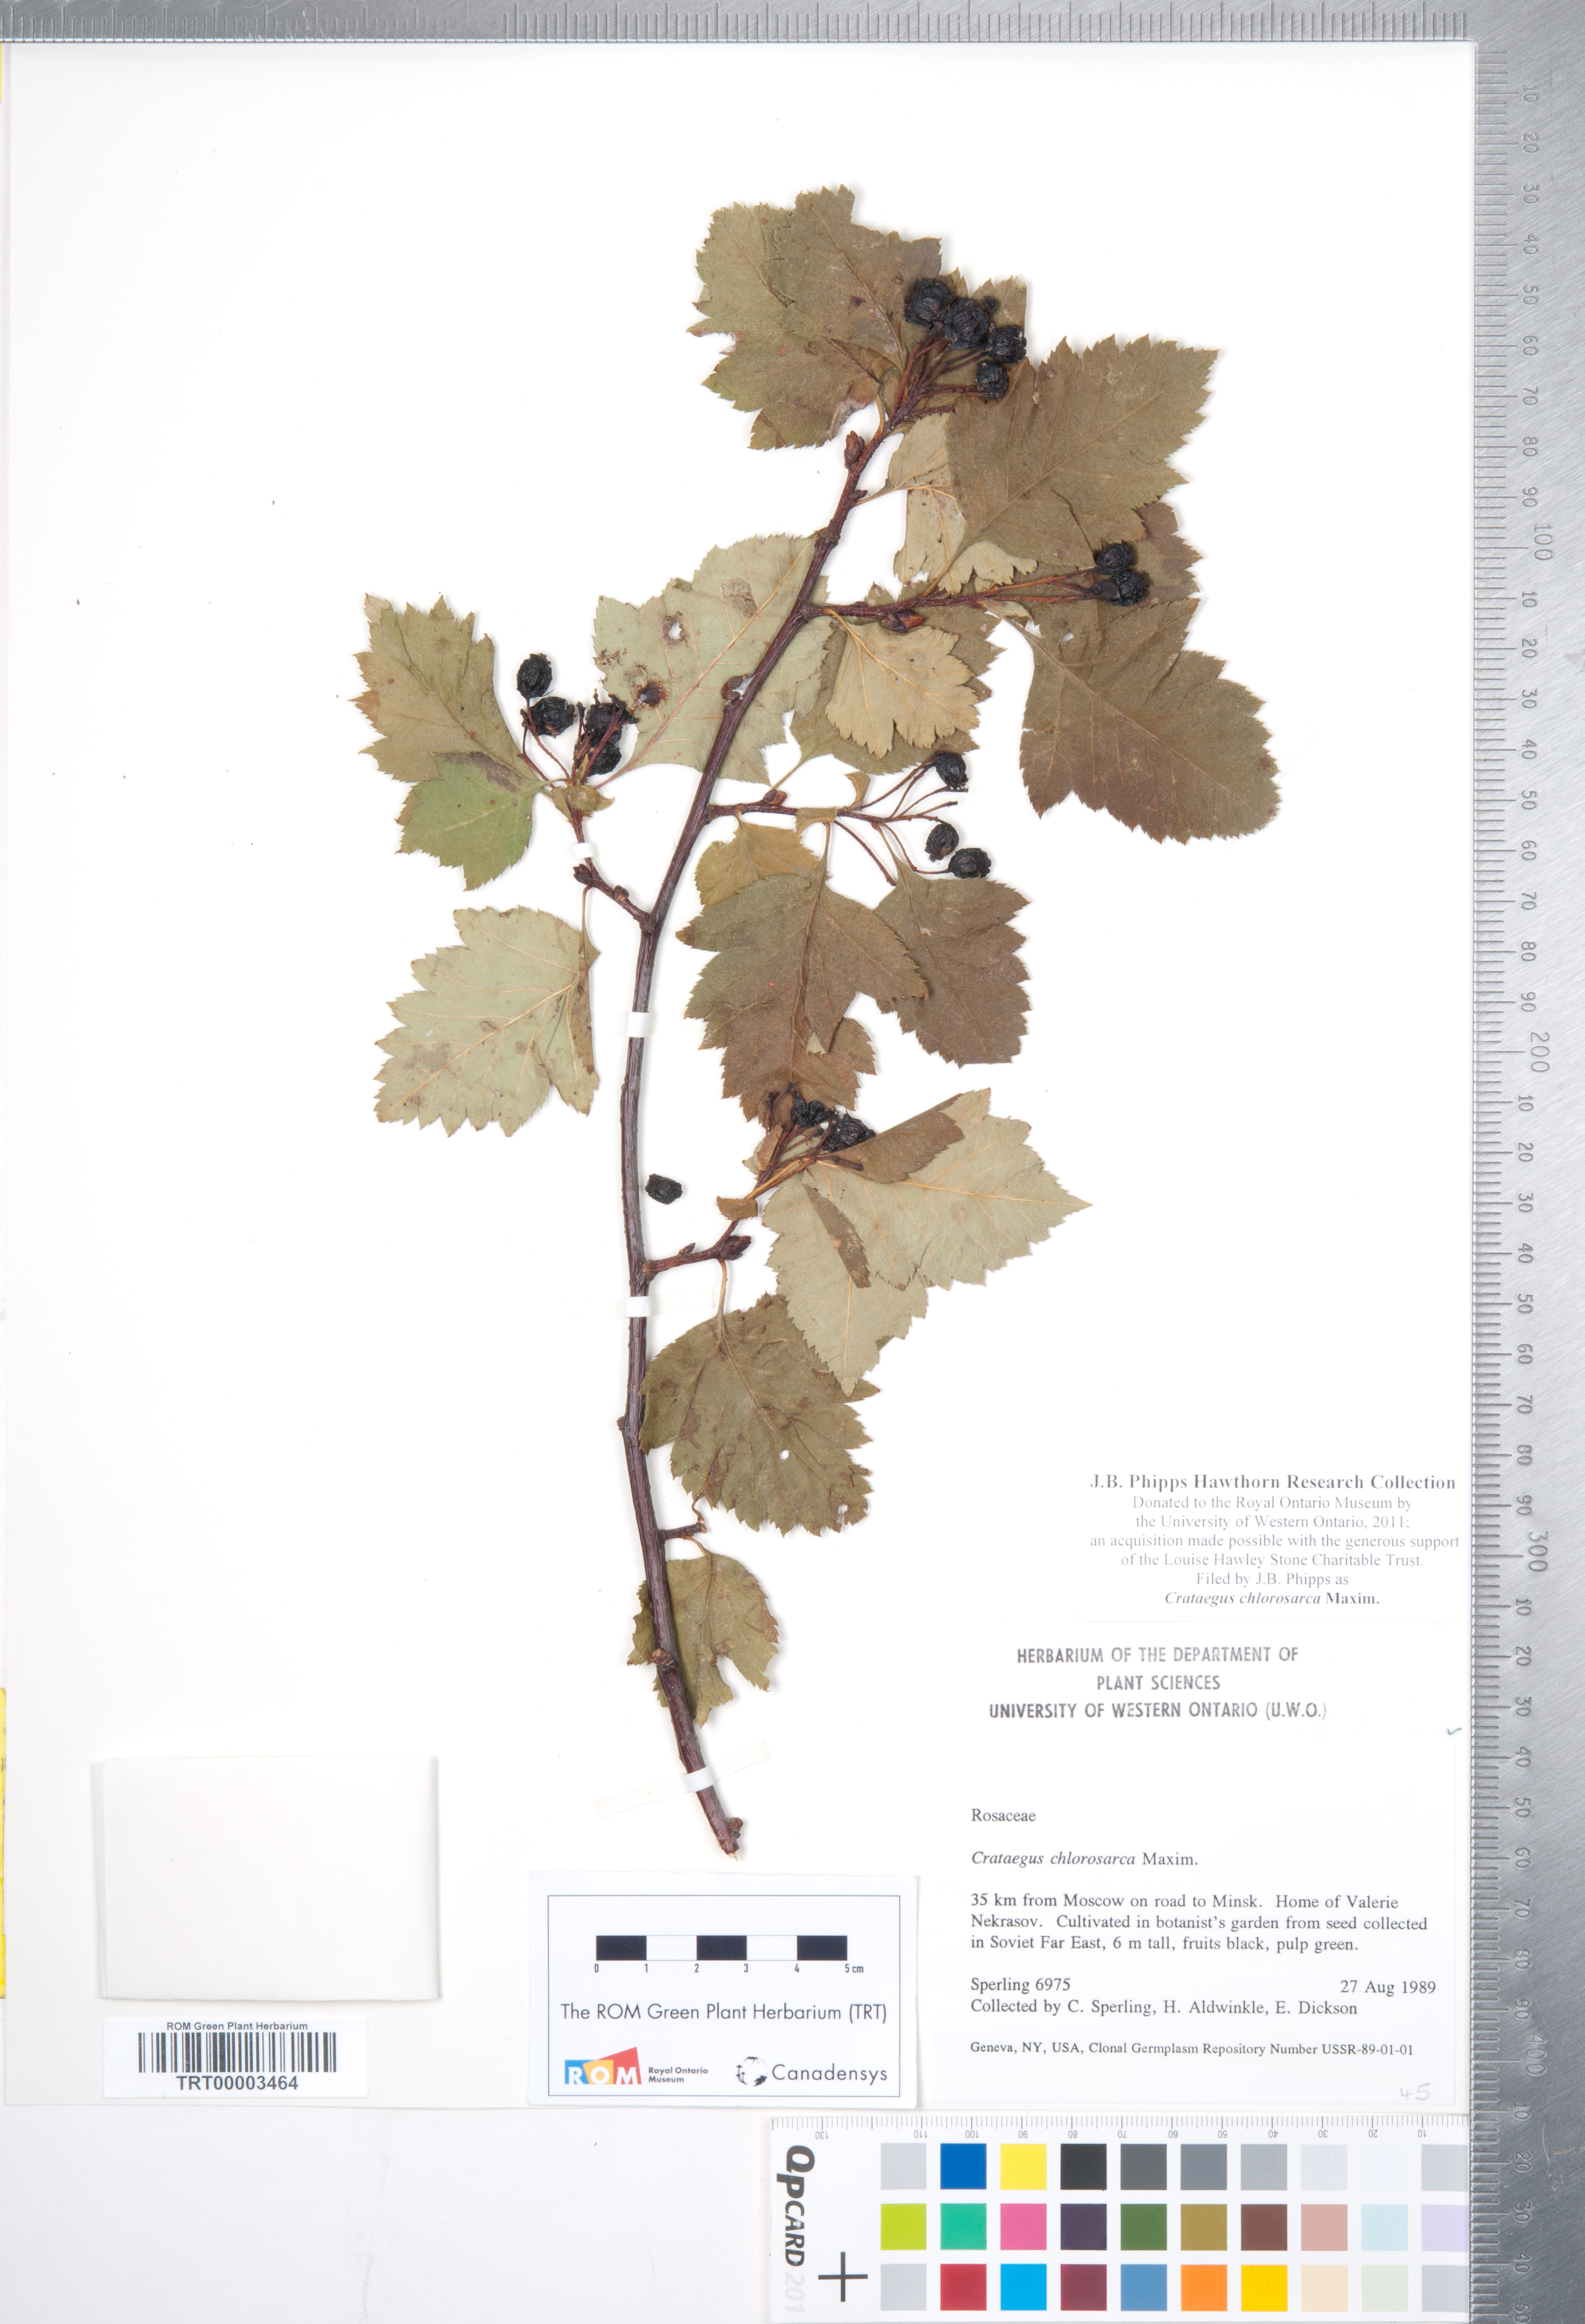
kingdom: Plantae
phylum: Tracheophyta
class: Magnoliopsida
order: Rosales
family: Rosaceae
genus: Crataegus
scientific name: Crataegus chlorosarca
